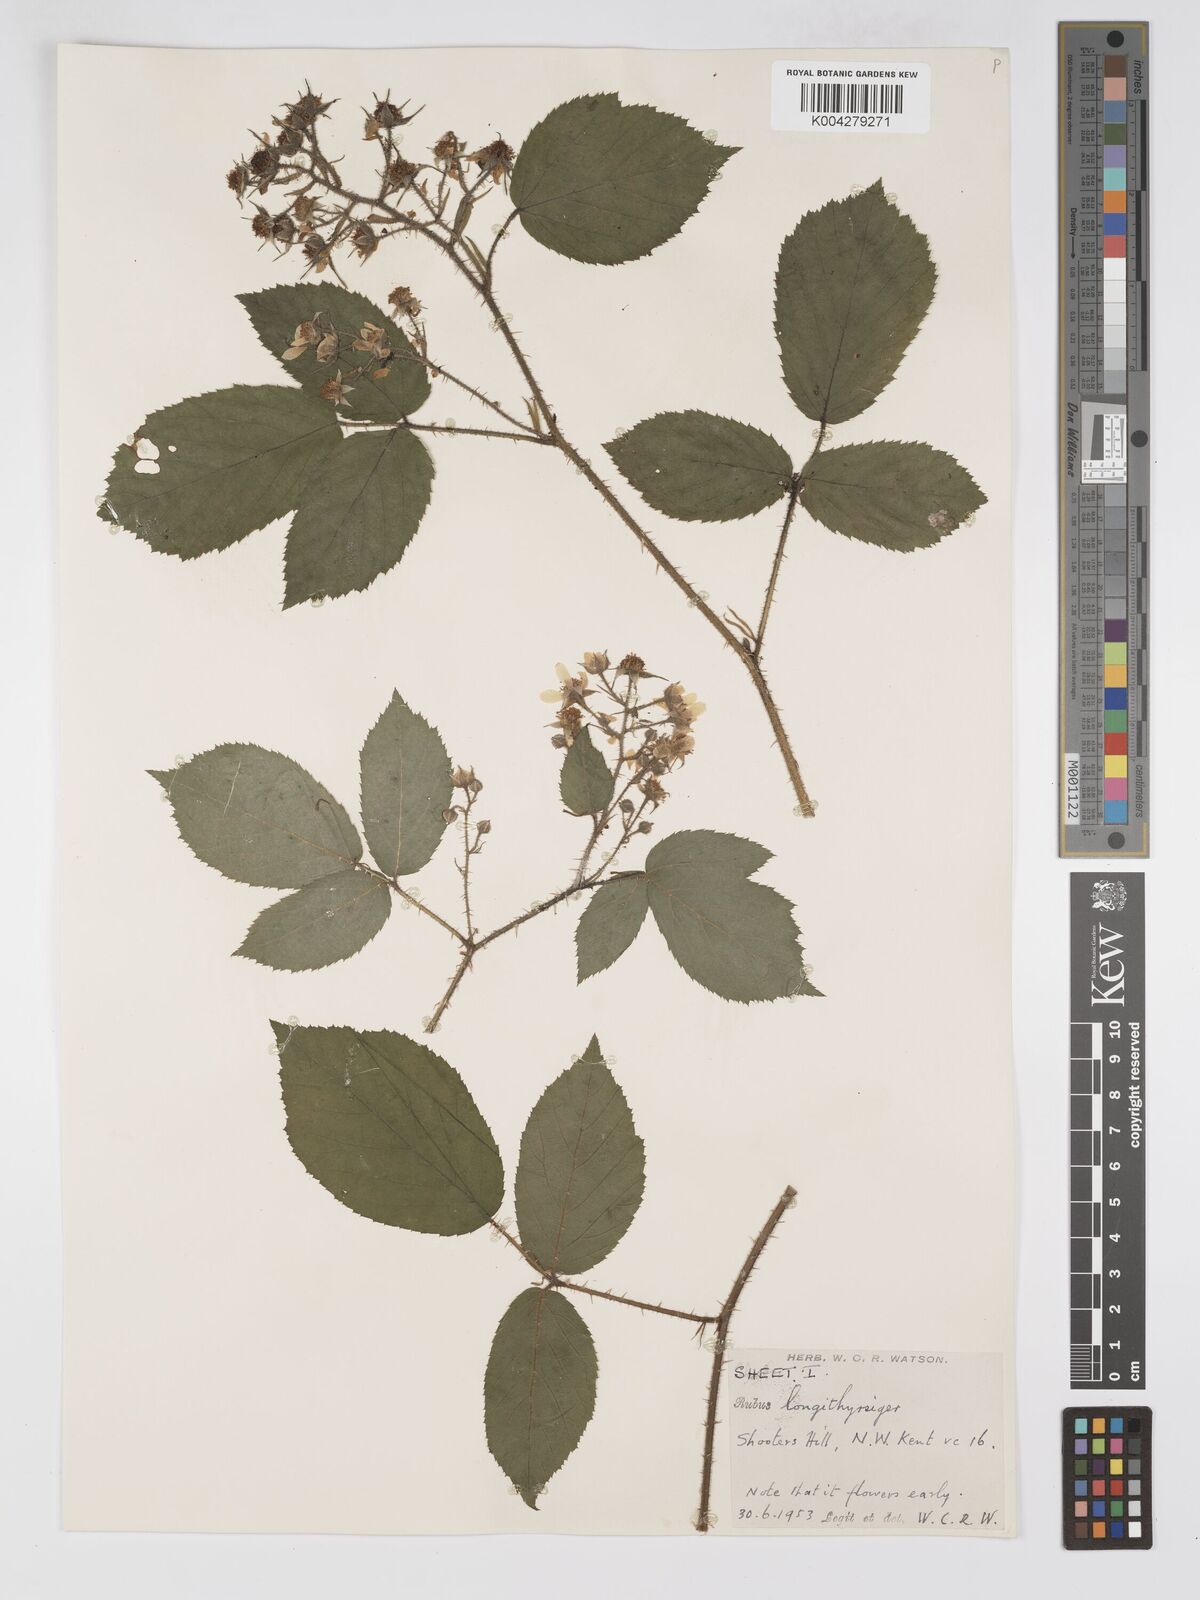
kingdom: Plantae
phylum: Tracheophyta
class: Magnoliopsida
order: Rosales
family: Rosaceae
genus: Rubus
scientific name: Rubus longithyrsiger
